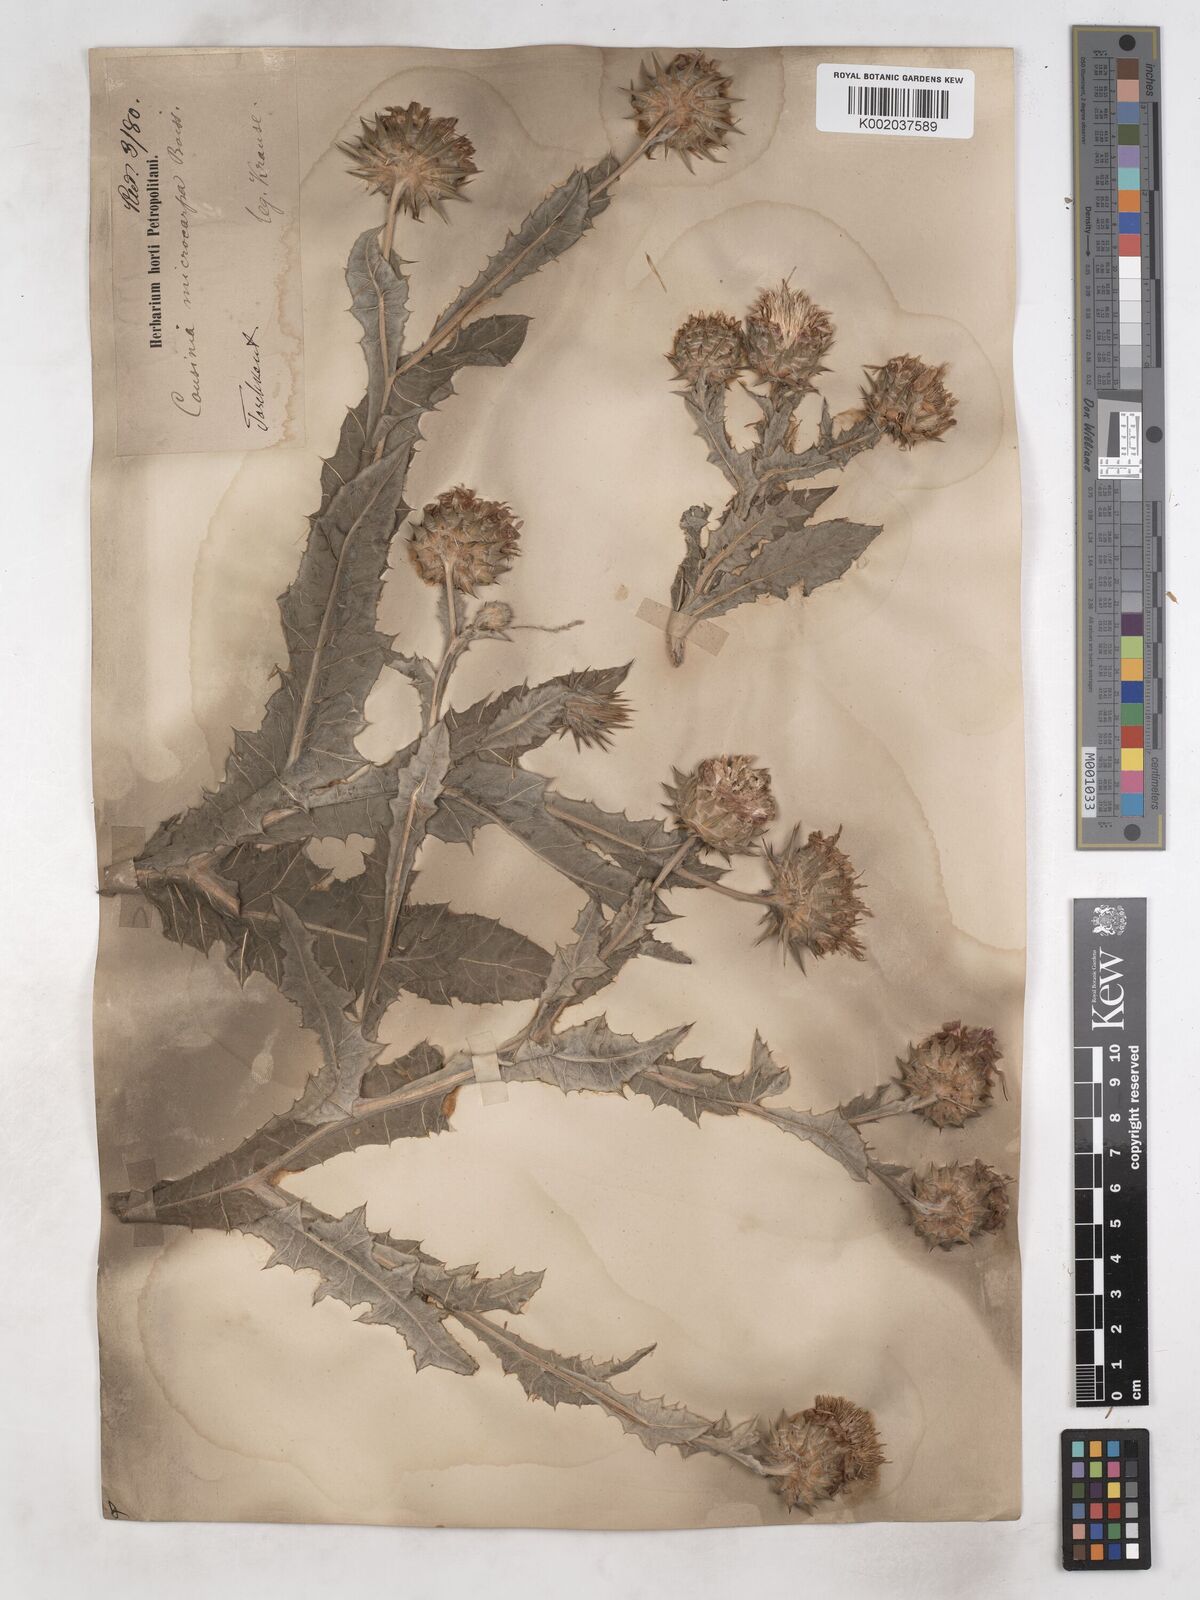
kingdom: Plantae
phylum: Tracheophyta
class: Magnoliopsida
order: Asterales
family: Asteraceae
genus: Cousinia
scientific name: Cousinia microcarpa
